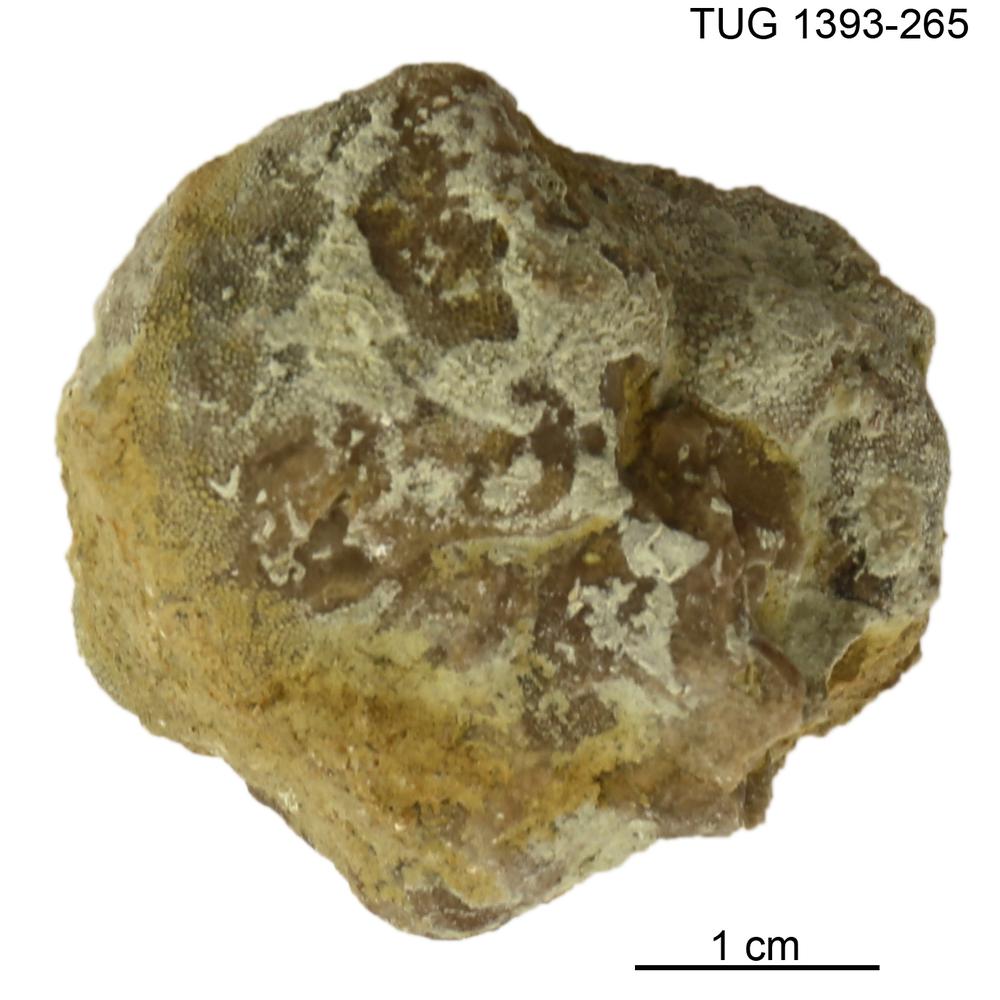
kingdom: Animalia
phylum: Bryozoa
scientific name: Bryozoa
